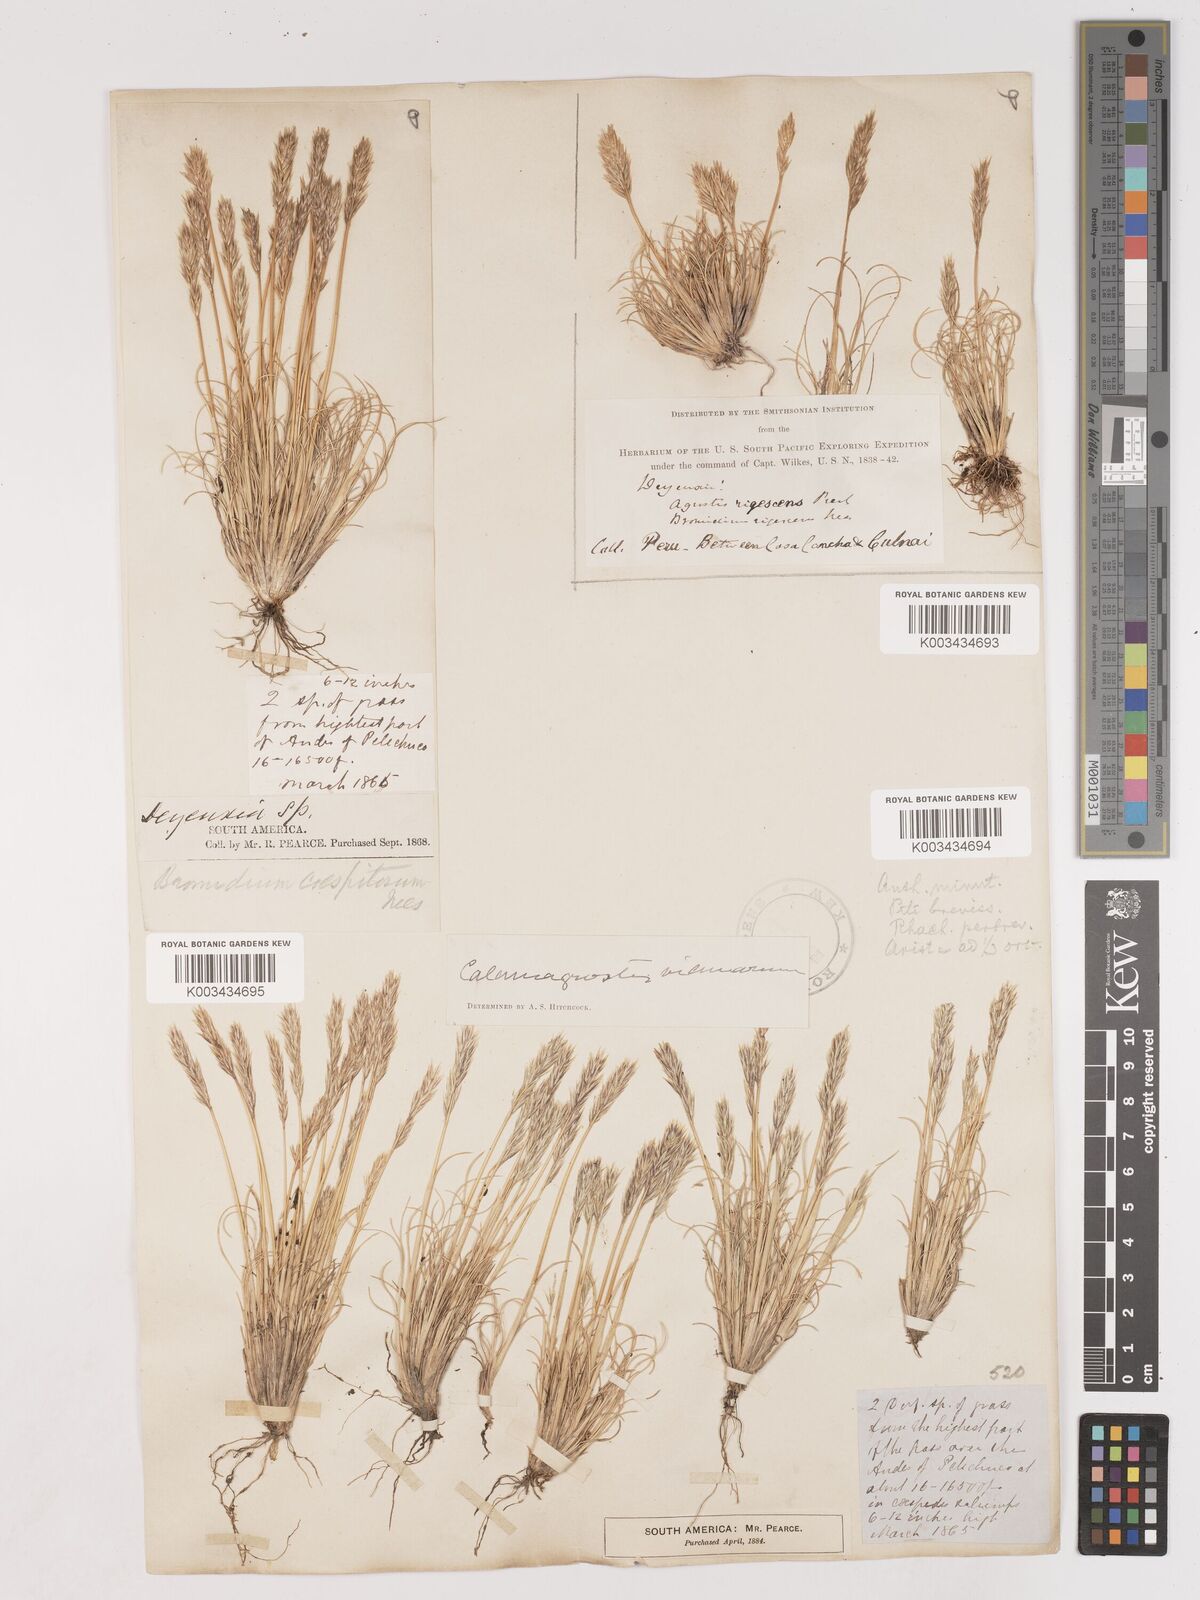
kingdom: Plantae
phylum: Tracheophyta
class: Liliopsida
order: Poales
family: Poaceae
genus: Cinnagrostis
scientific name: Cinnagrostis vicunarum
